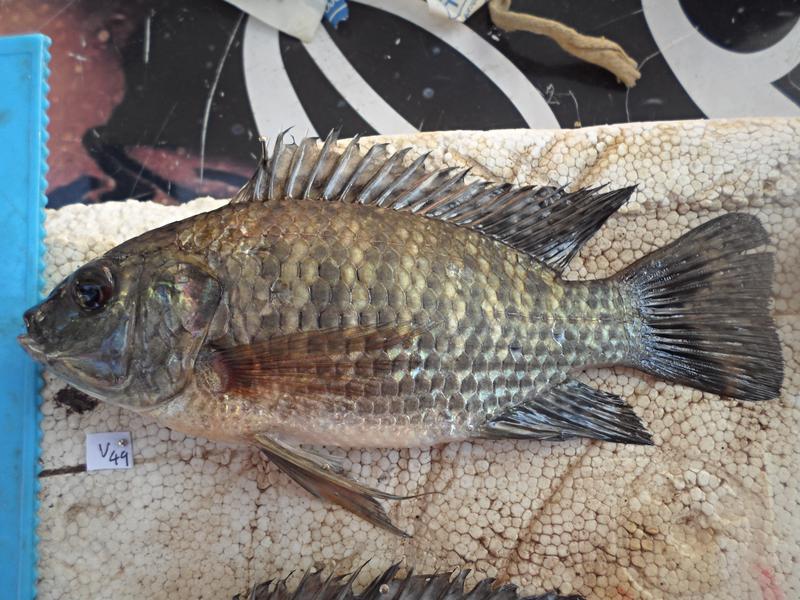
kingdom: Animalia
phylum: Chordata
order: Perciformes
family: Cichlidae
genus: Oreochromis
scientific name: Oreochromis leucostictus
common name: Blue spotted tilapia
